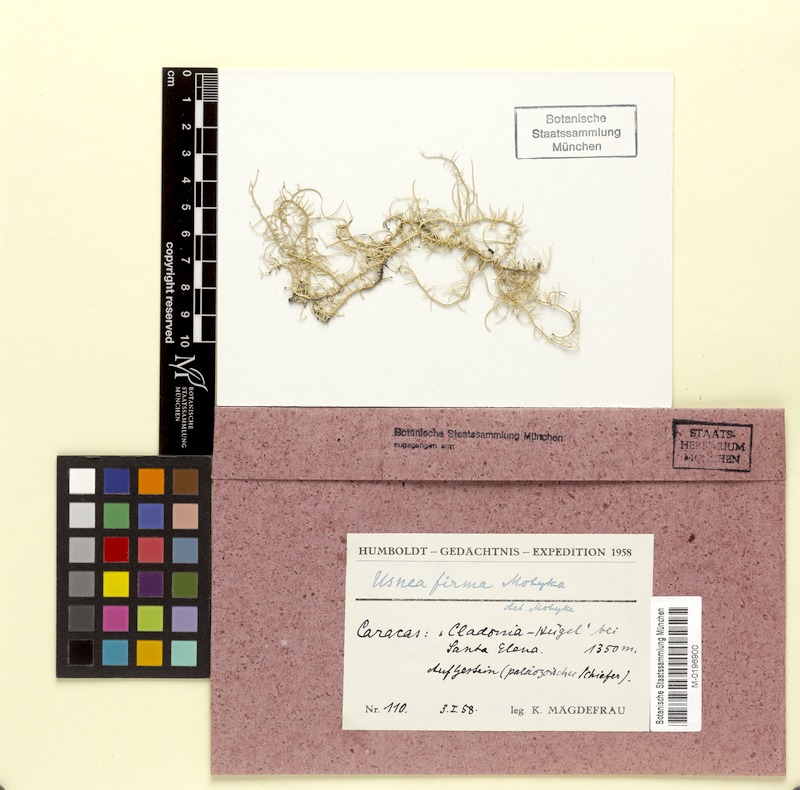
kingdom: Fungi
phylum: Ascomycota
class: Lecanoromycetes
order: Lecanorales
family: Parmeliaceae
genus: Usnea
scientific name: Usnea firmula
